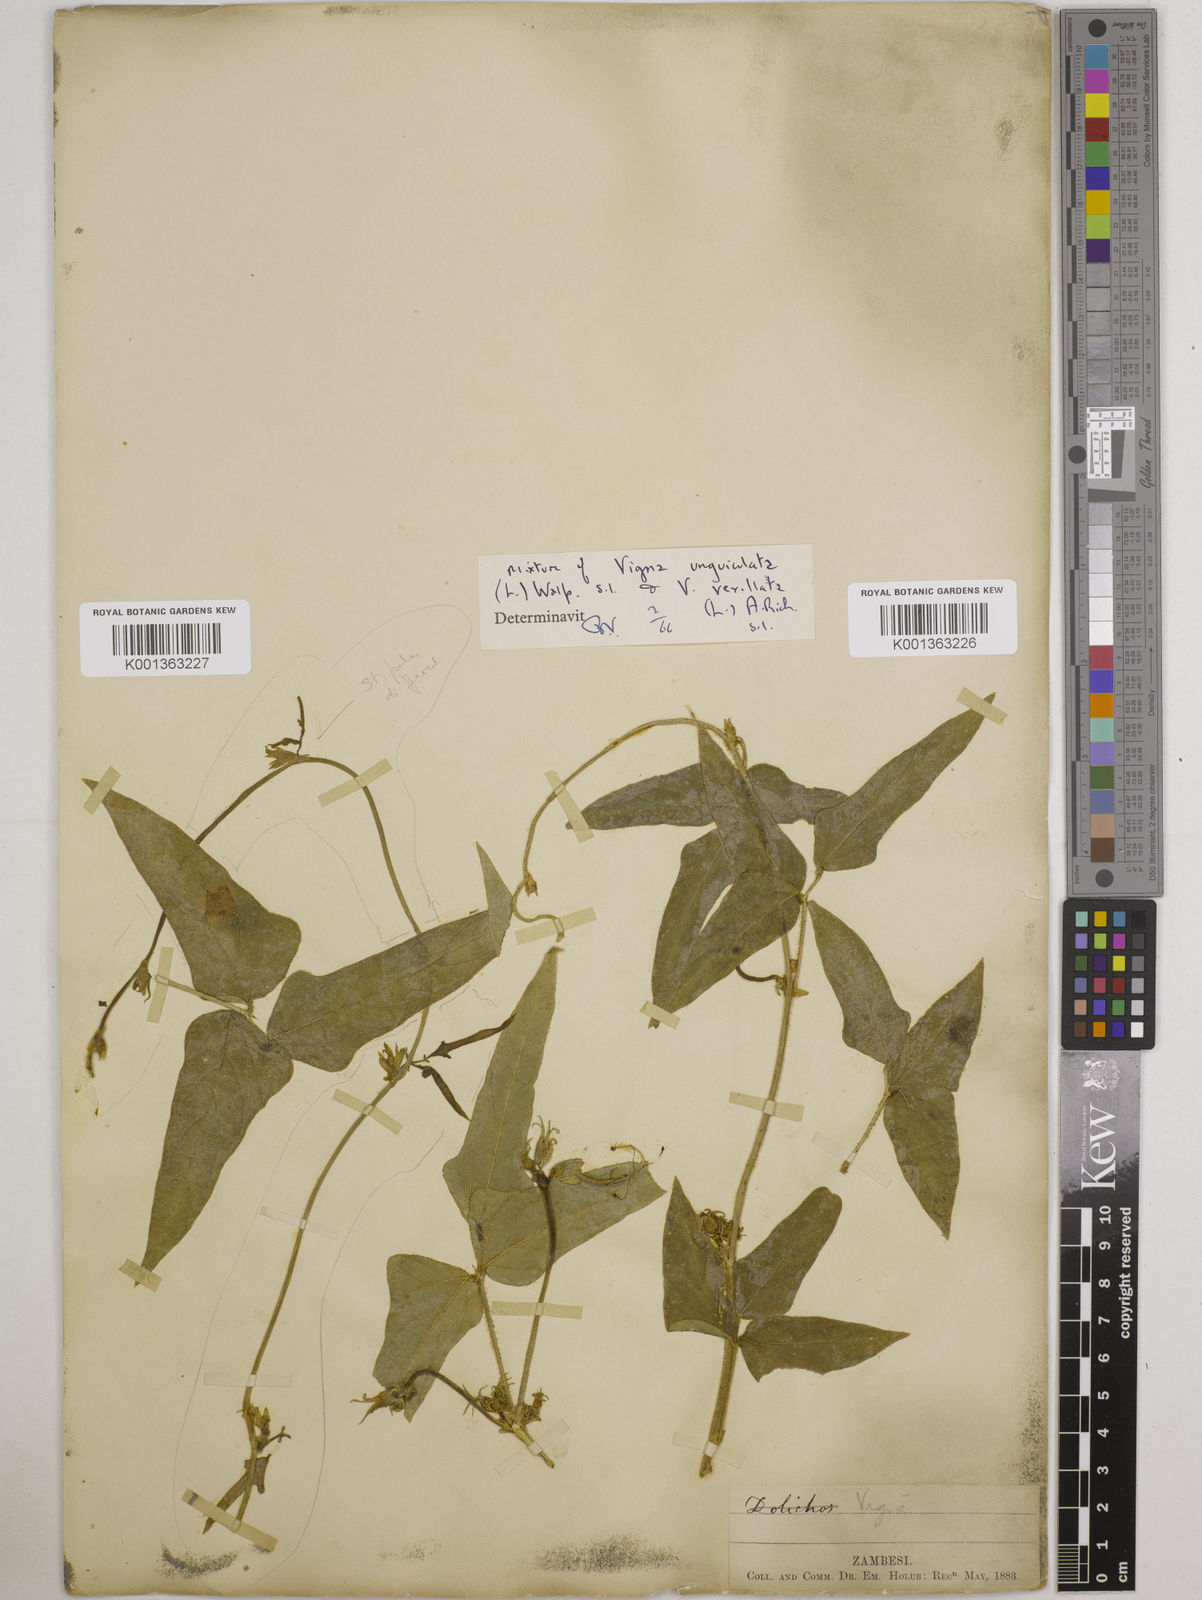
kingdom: Plantae
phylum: Tracheophyta
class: Magnoliopsida
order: Fabales
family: Fabaceae
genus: Vigna
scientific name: Vigna unguiculata
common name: Cowpea
